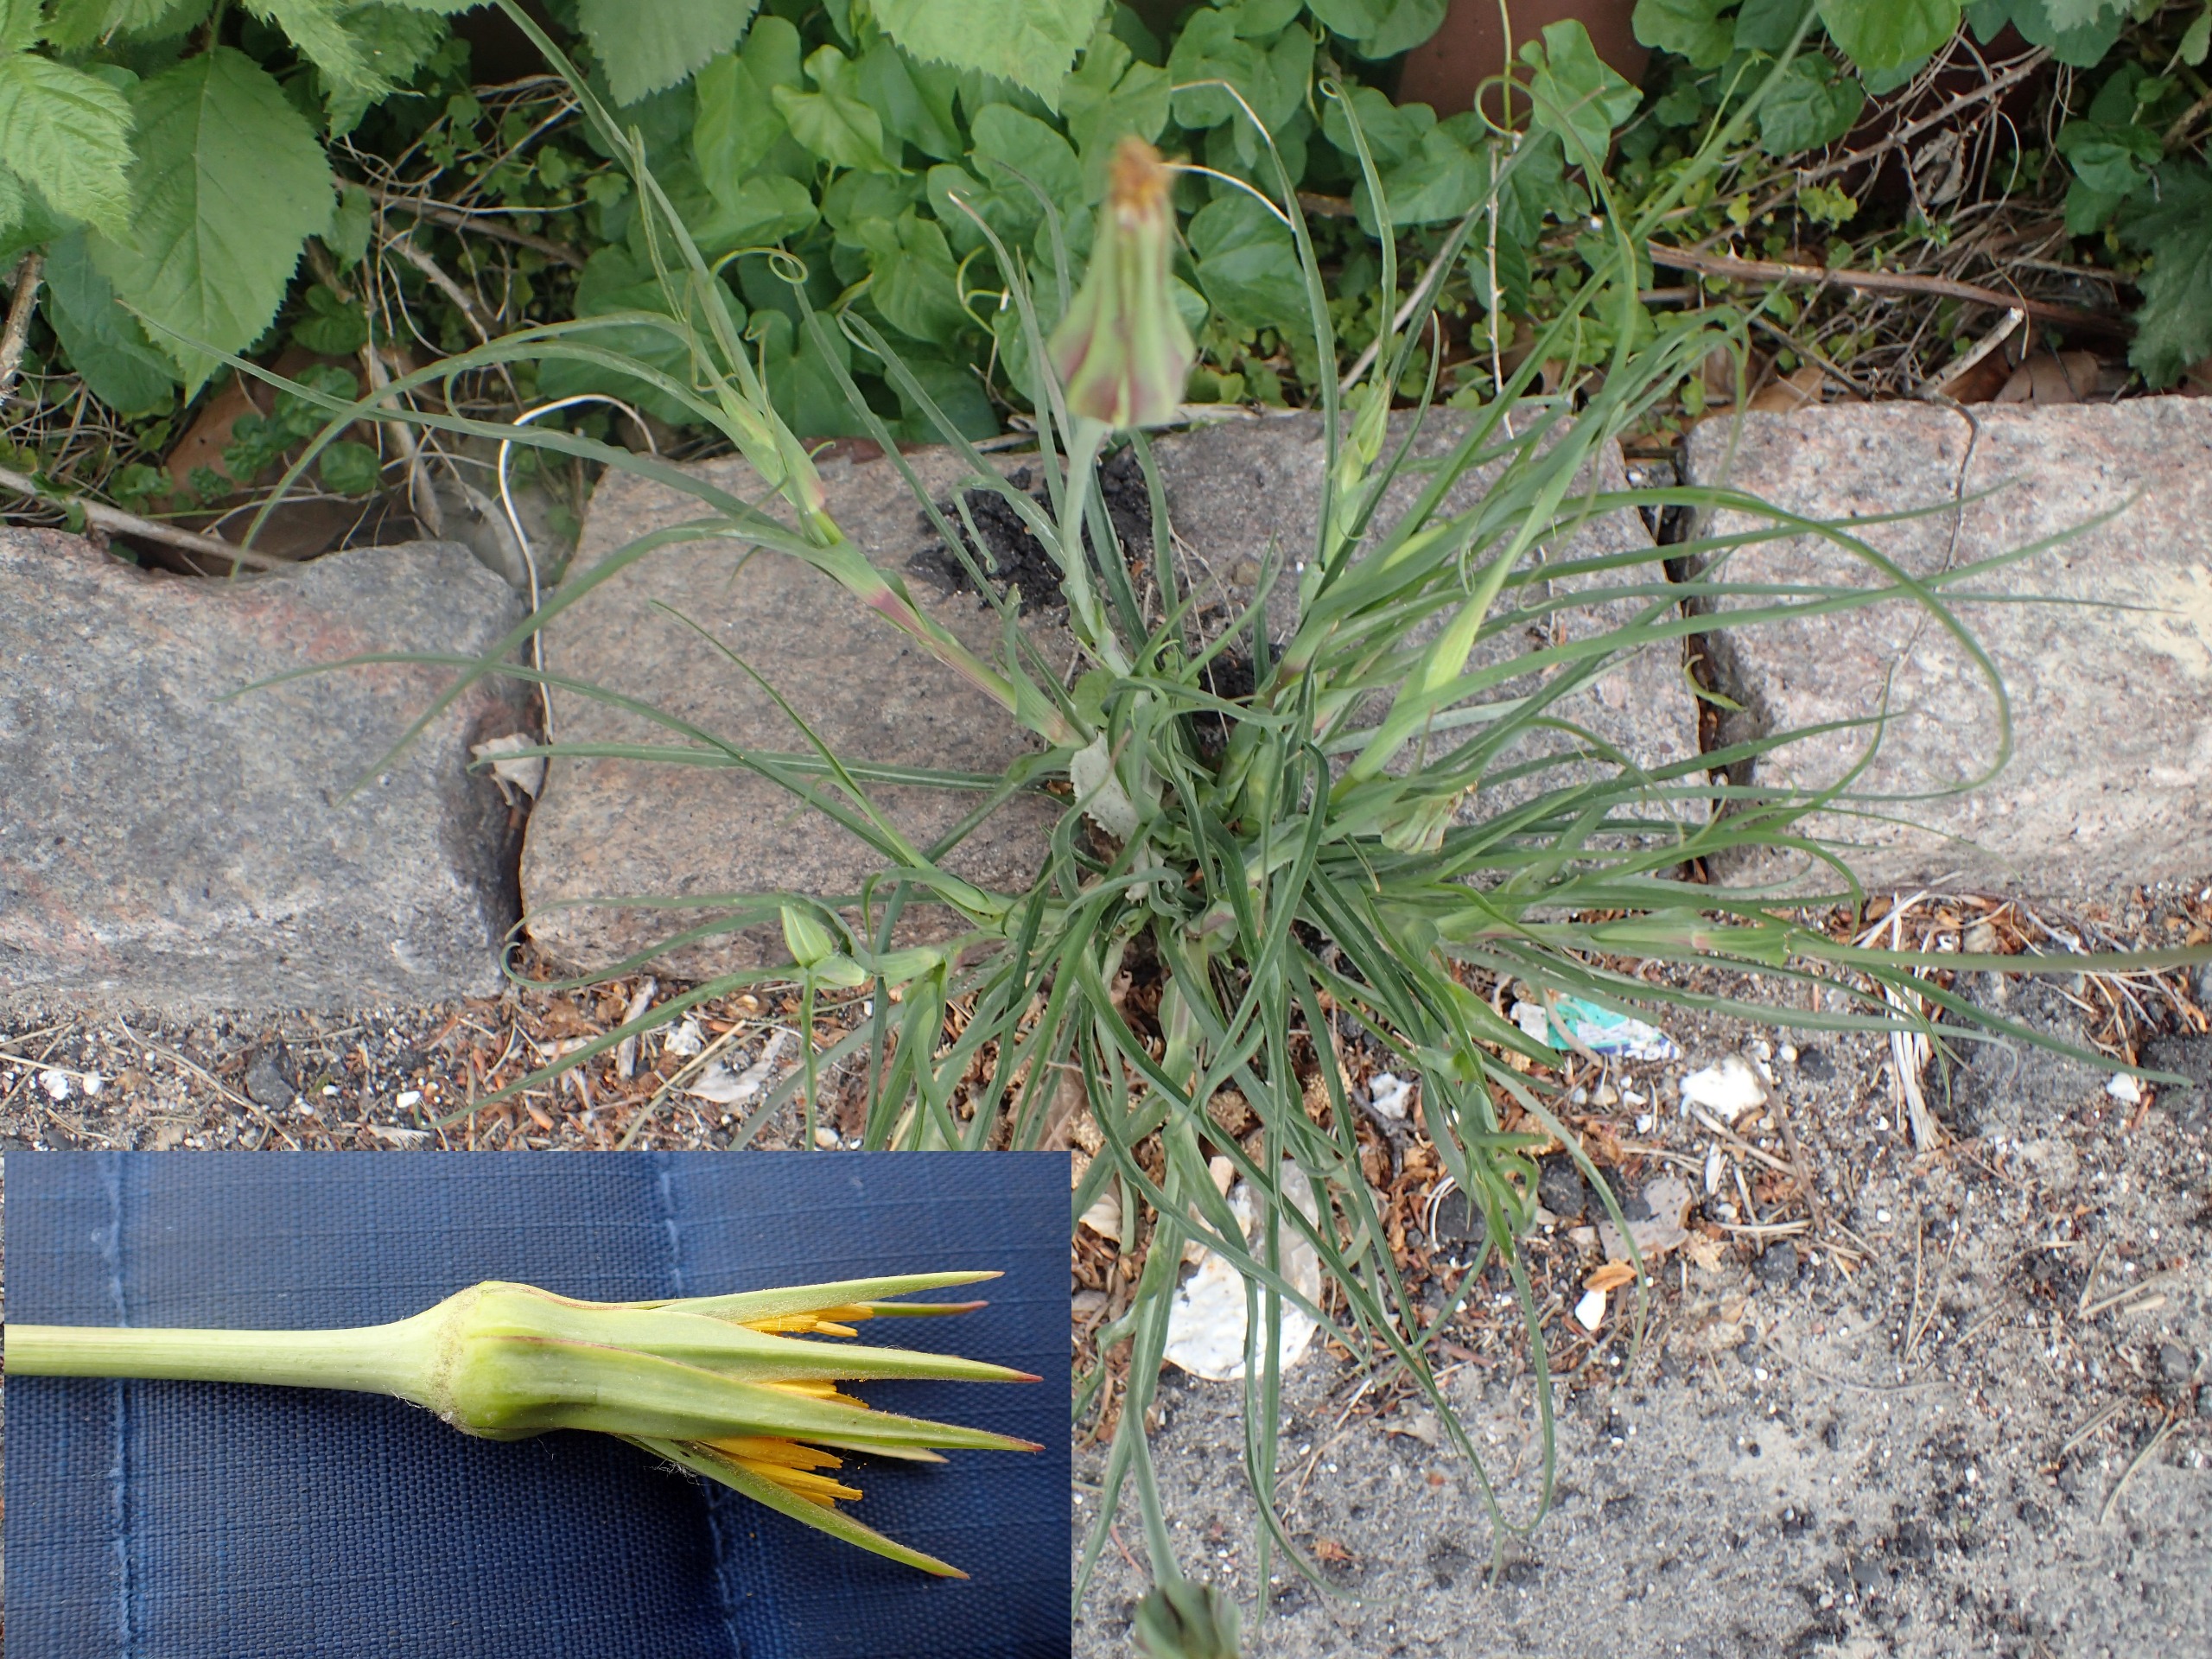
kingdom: Plantae
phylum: Tracheophyta
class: Magnoliopsida
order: Asterales
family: Asteraceae
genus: Tragopogon
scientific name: Tragopogon minor
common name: Småkronet gedeskæg
